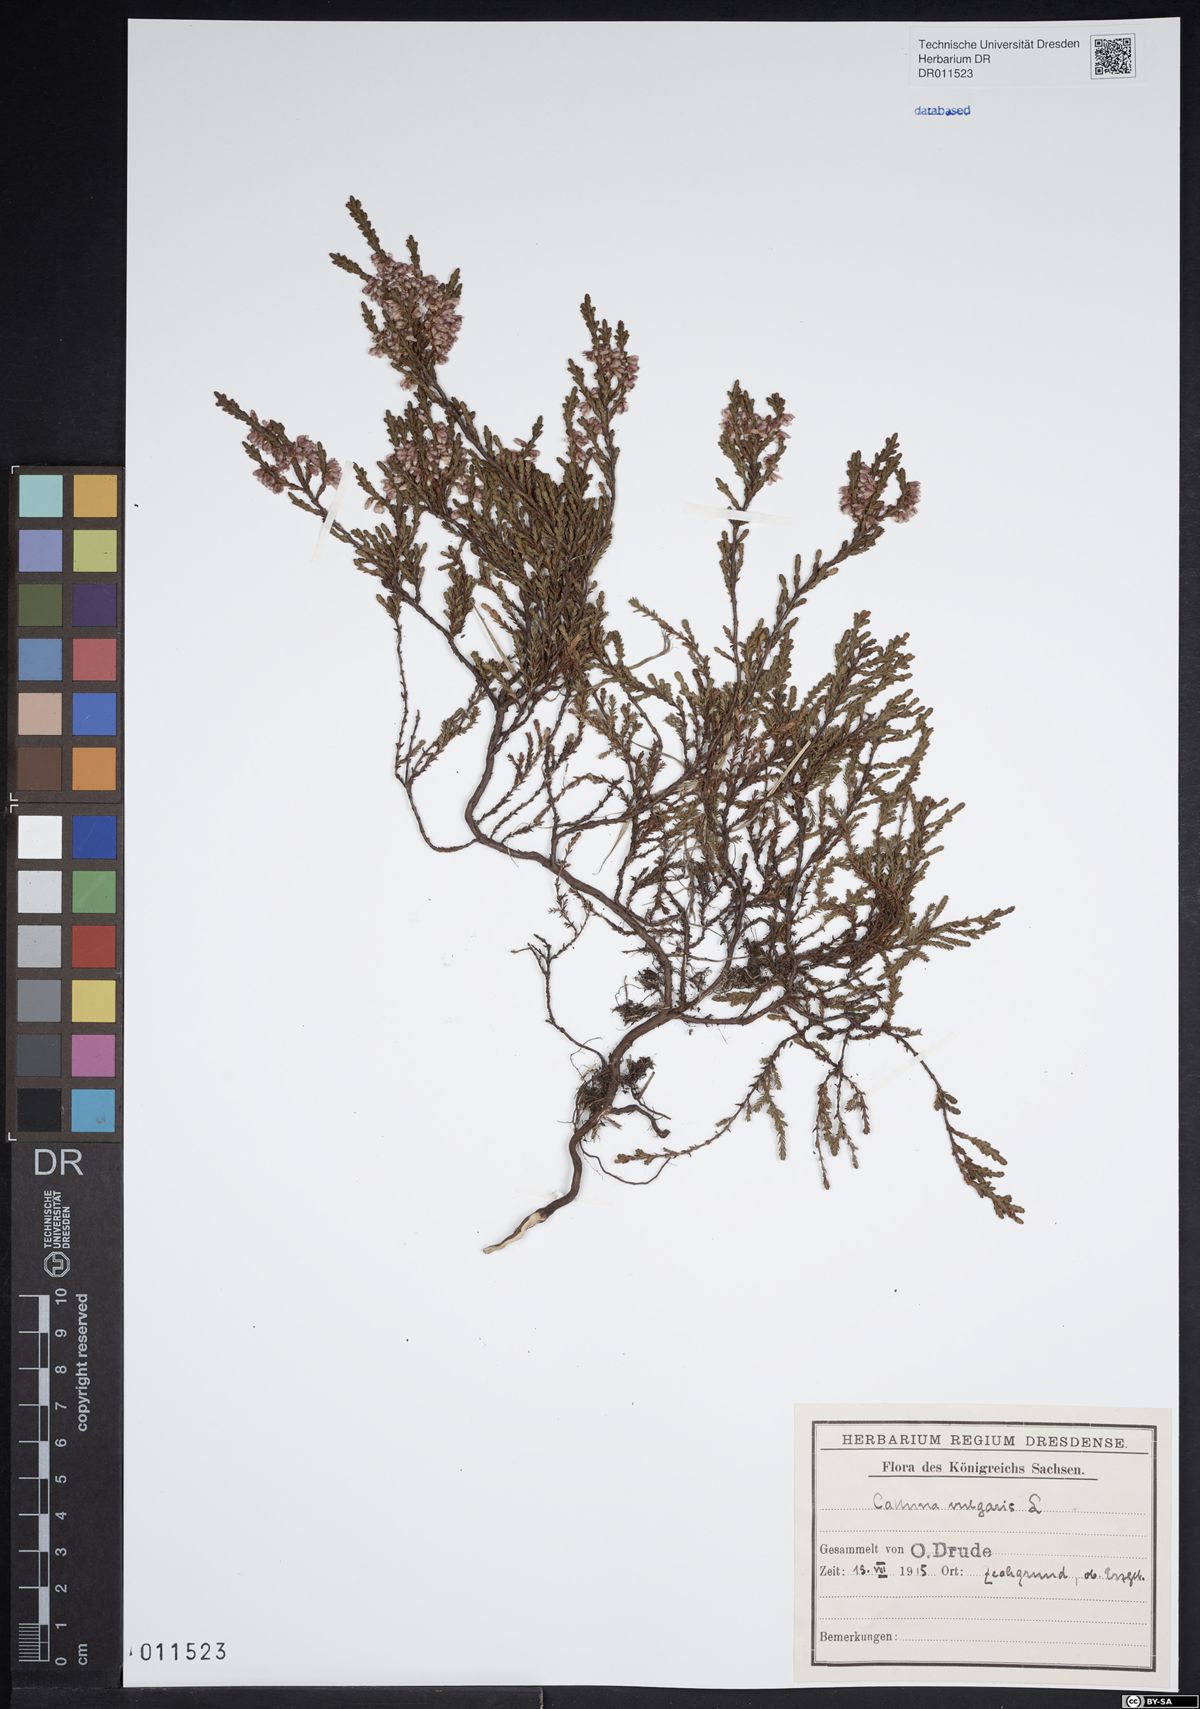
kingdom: Plantae
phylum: Tracheophyta
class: Magnoliopsida
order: Ericales
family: Ericaceae
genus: Calluna
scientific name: Calluna vulgaris
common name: Heather
